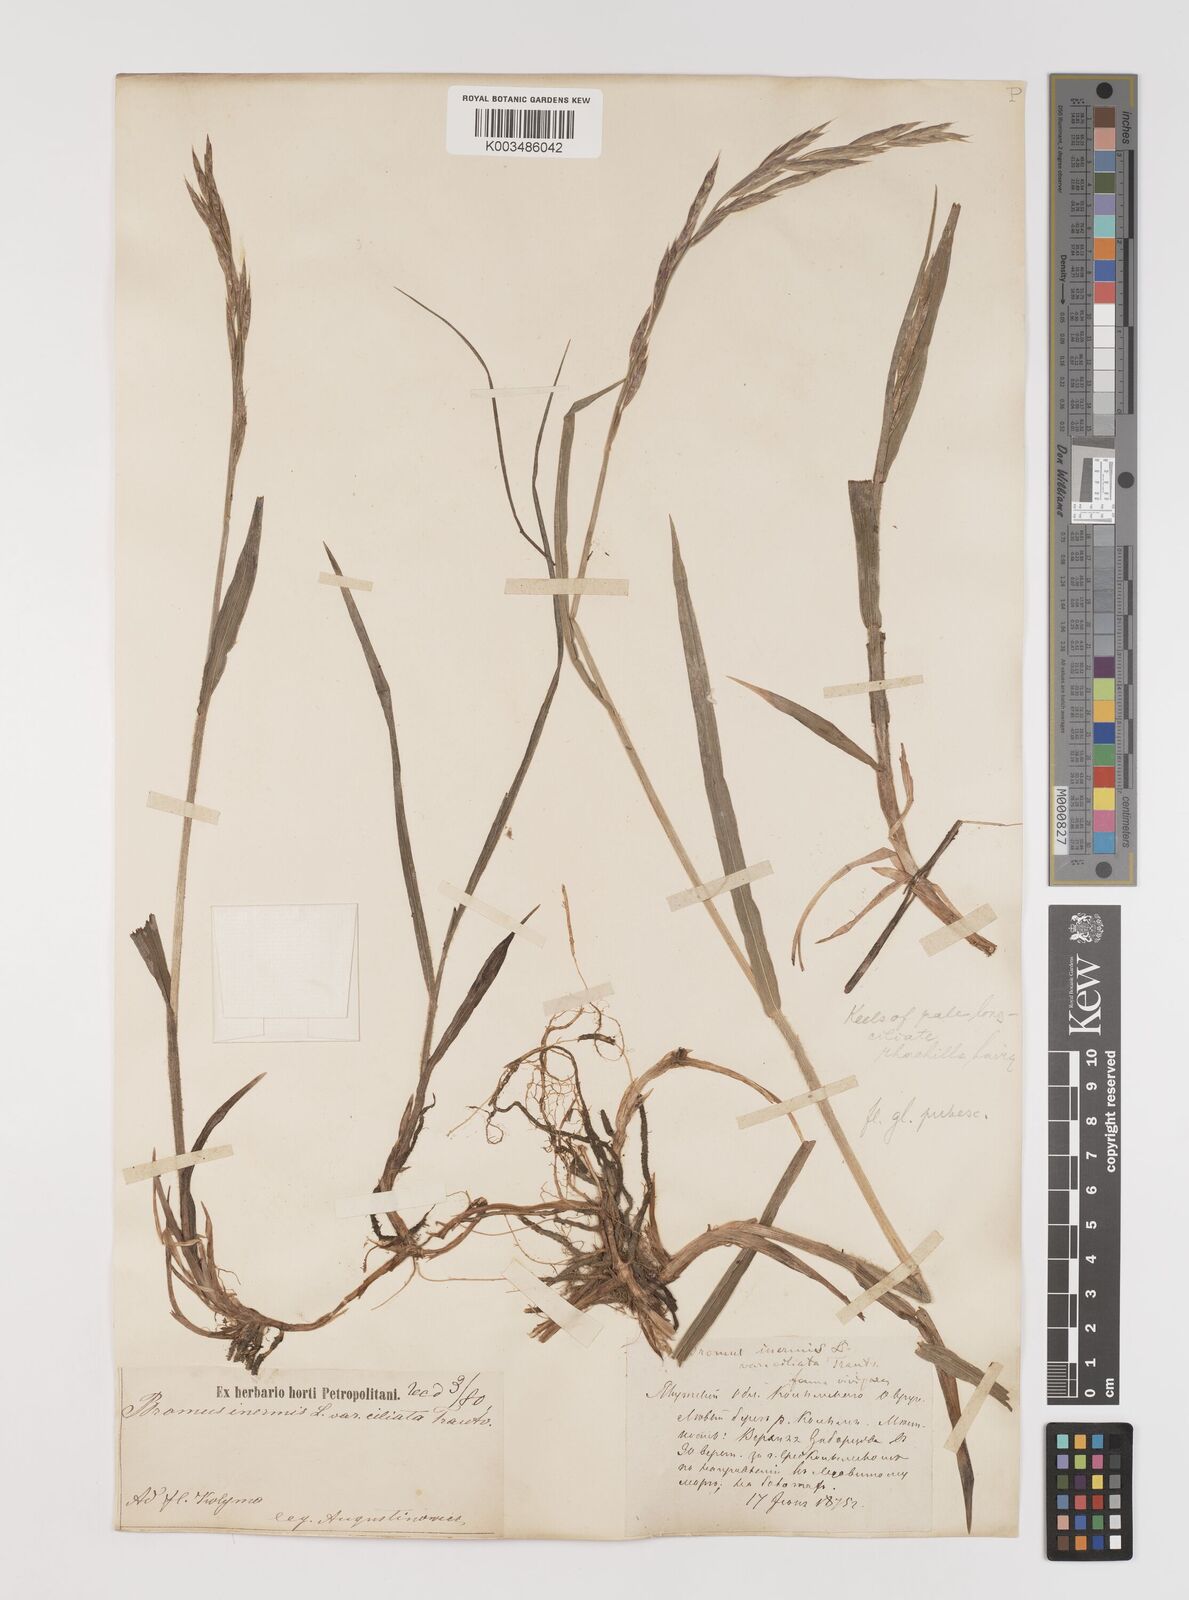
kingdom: Plantae
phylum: Tracheophyta
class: Liliopsida
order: Poales
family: Poaceae
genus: Bromus
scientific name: Bromus inermis
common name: Smooth brome
